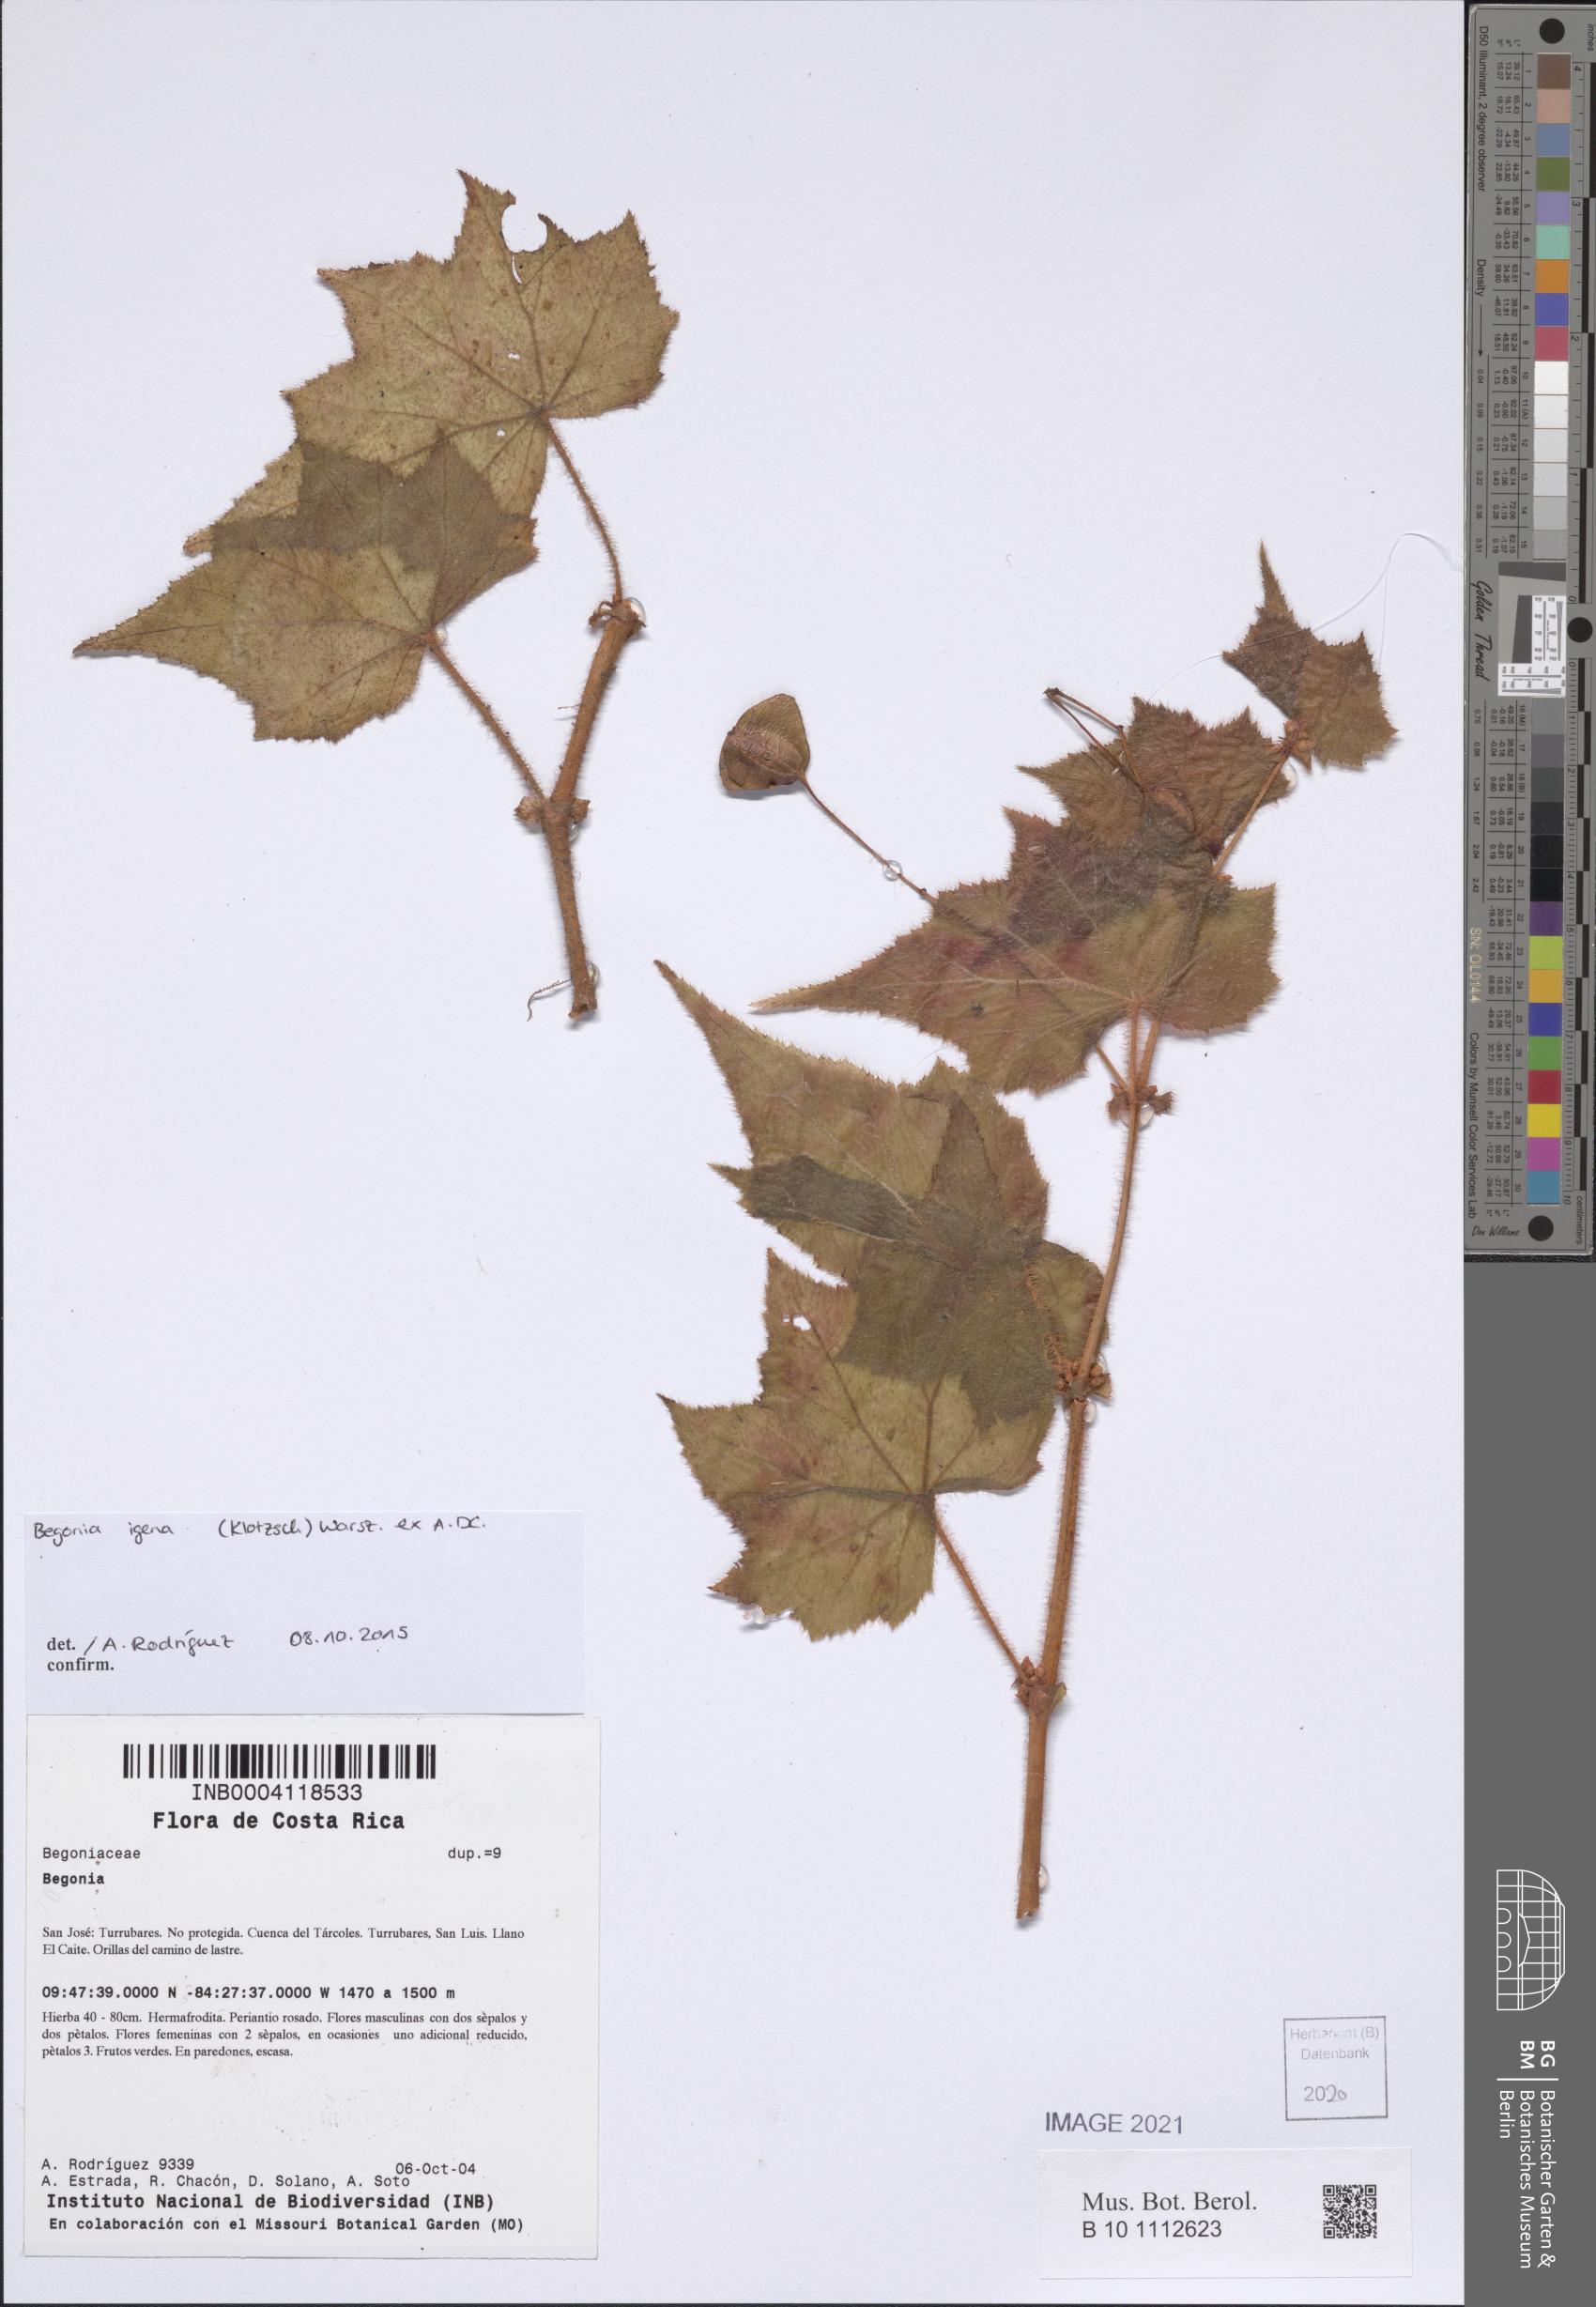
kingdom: Plantae
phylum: Tracheophyta
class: Magnoliopsida
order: Cucurbitales
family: Begoniaceae
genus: Begonia
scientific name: Begonia
